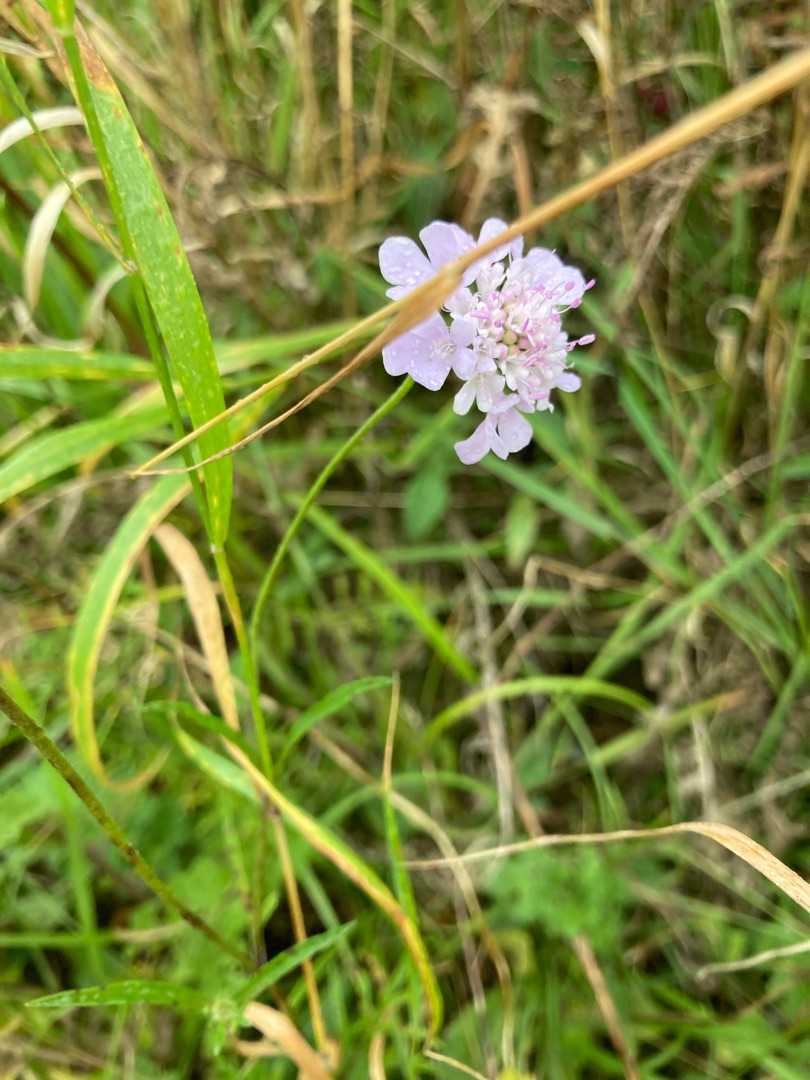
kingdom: Plantae
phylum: Tracheophyta
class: Magnoliopsida
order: Dipsacales
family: Caprifoliaceae
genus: Scabiosa
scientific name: Scabiosa columbaria
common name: Due-skabiose
